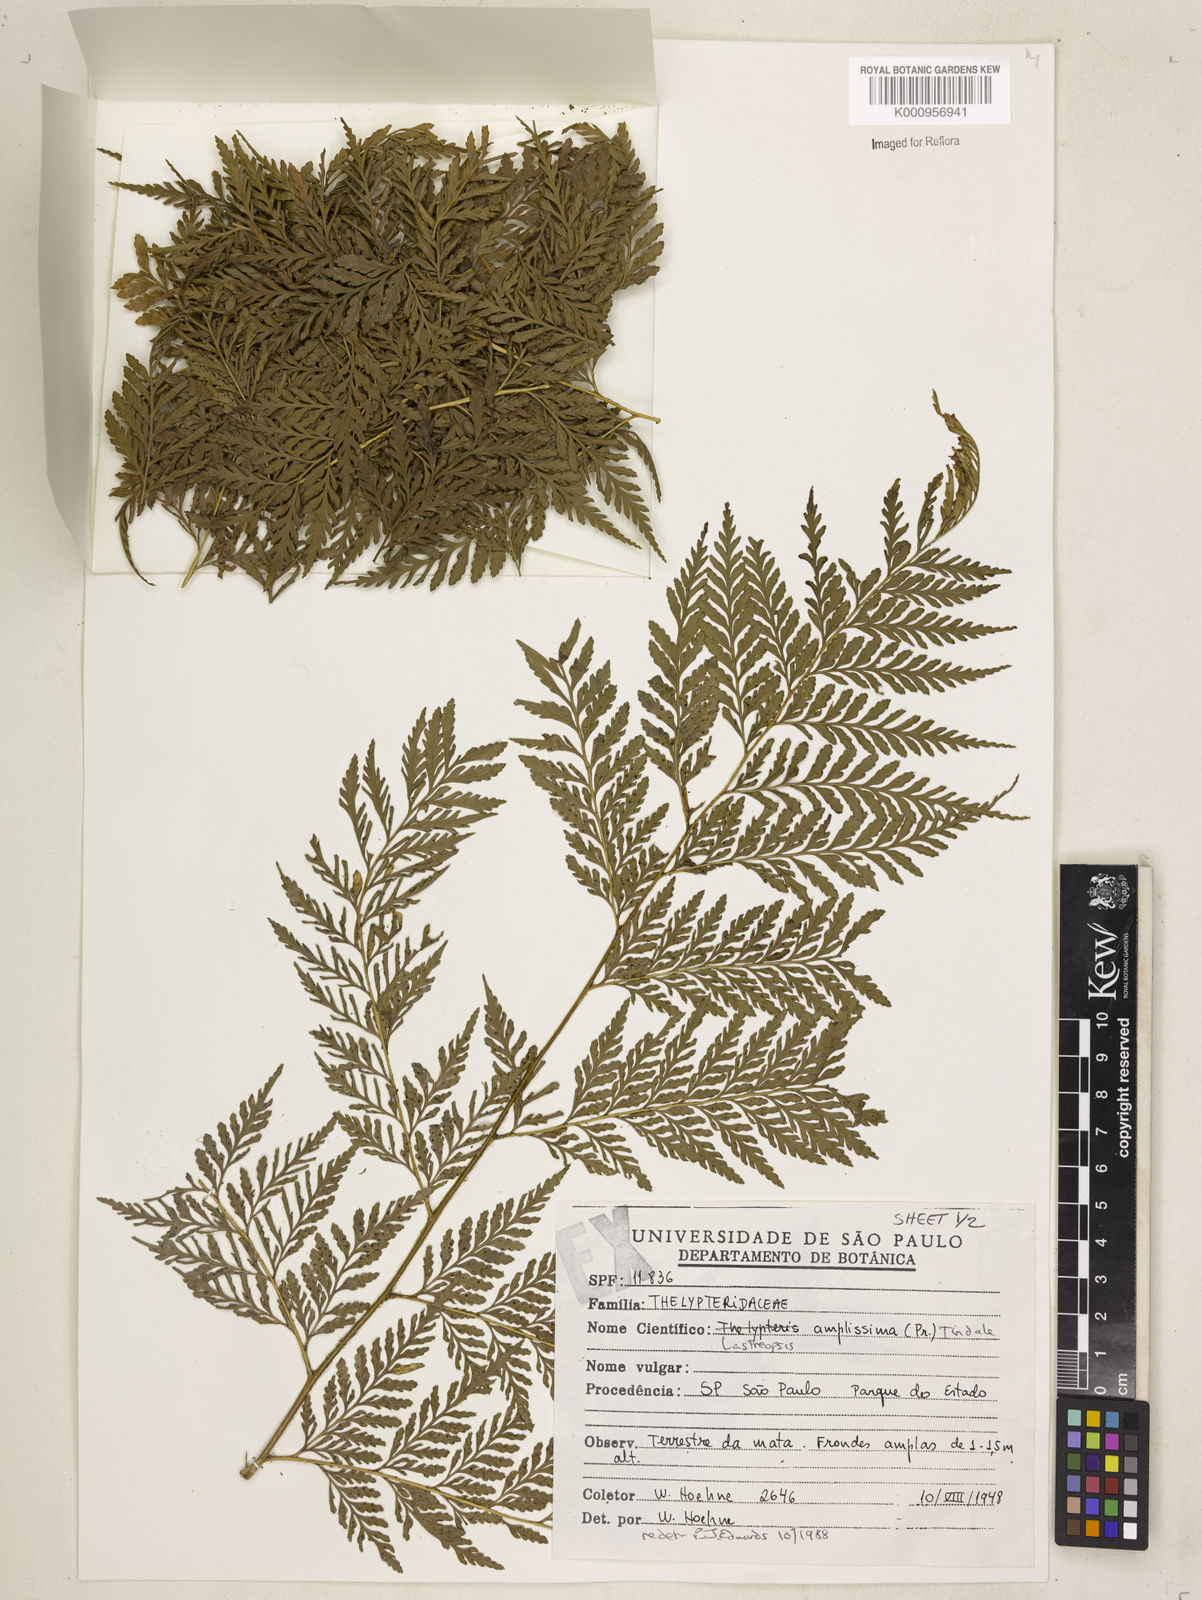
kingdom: Plantae
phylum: Tracheophyta
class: Polypodiopsida
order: Polypodiales
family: Dryopteridaceae
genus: Lastreopsis
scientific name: Lastreopsis amplissima
